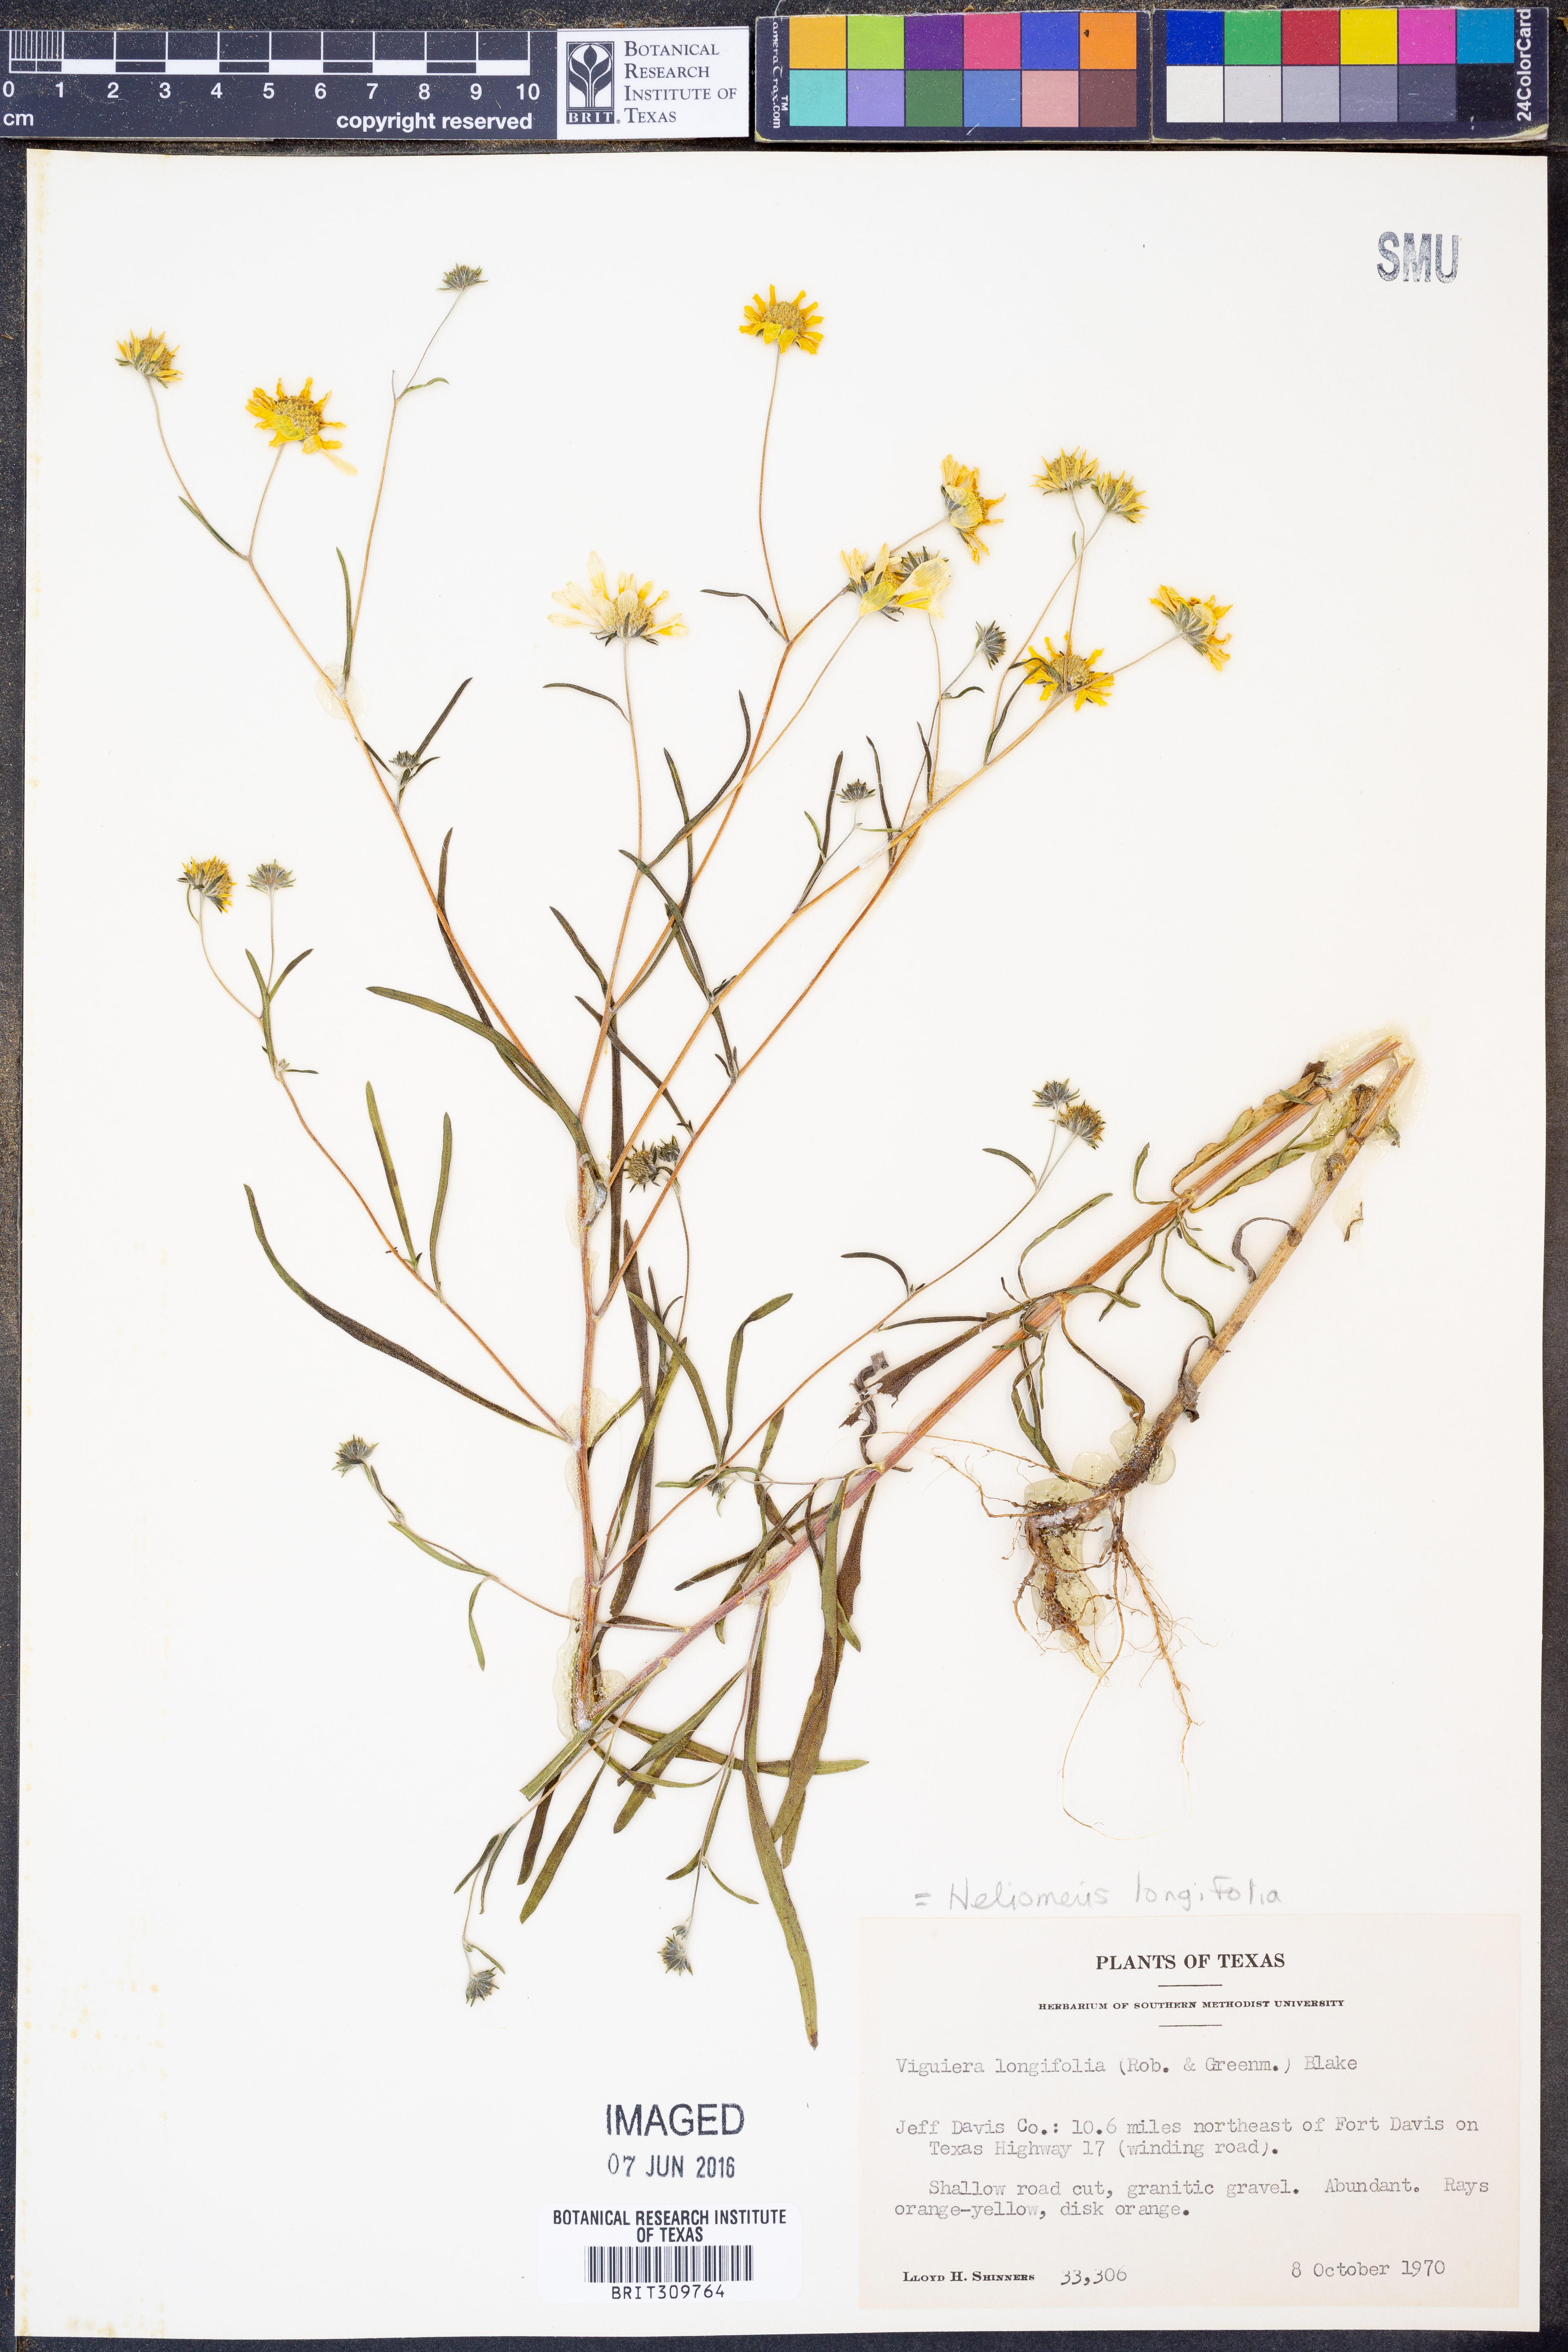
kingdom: Plantae
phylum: Tracheophyta
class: Magnoliopsida
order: Asterales
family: Asteraceae
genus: Heliomeris
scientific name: Heliomeris longifolia
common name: Longleaf false goldeneye
